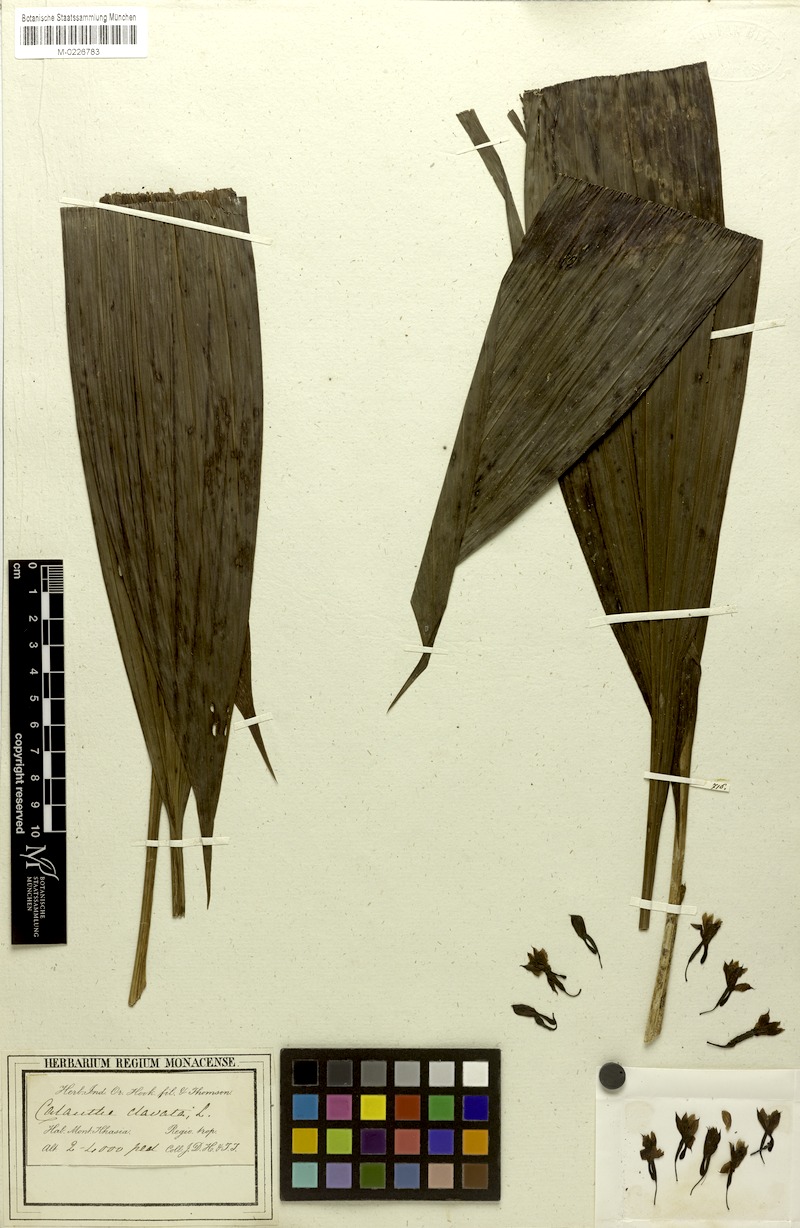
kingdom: Plantae
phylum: Tracheophyta
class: Liliopsida
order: Asparagales
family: Orchidaceae
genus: Calanthe
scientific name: Calanthe clavata
